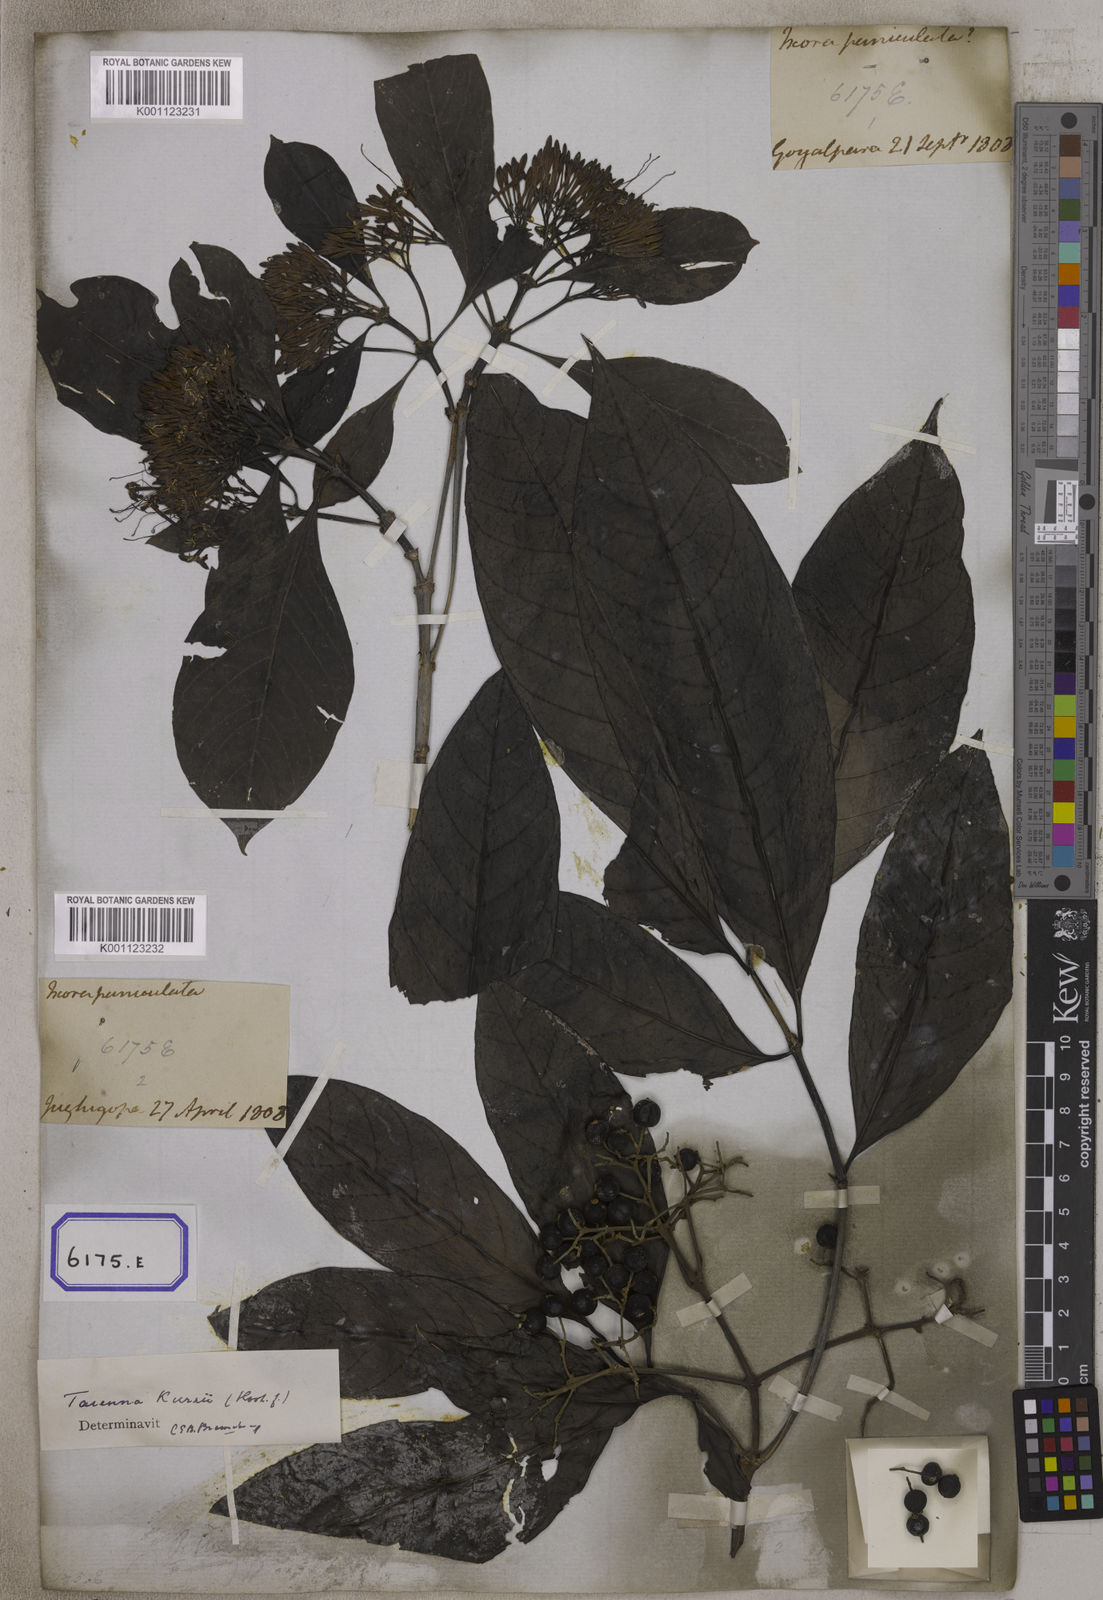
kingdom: Plantae
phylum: Tracheophyta
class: Magnoliopsida
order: Gentianales
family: Rubiaceae
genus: Pavetta
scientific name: Pavetta indica
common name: Indian pavetta
